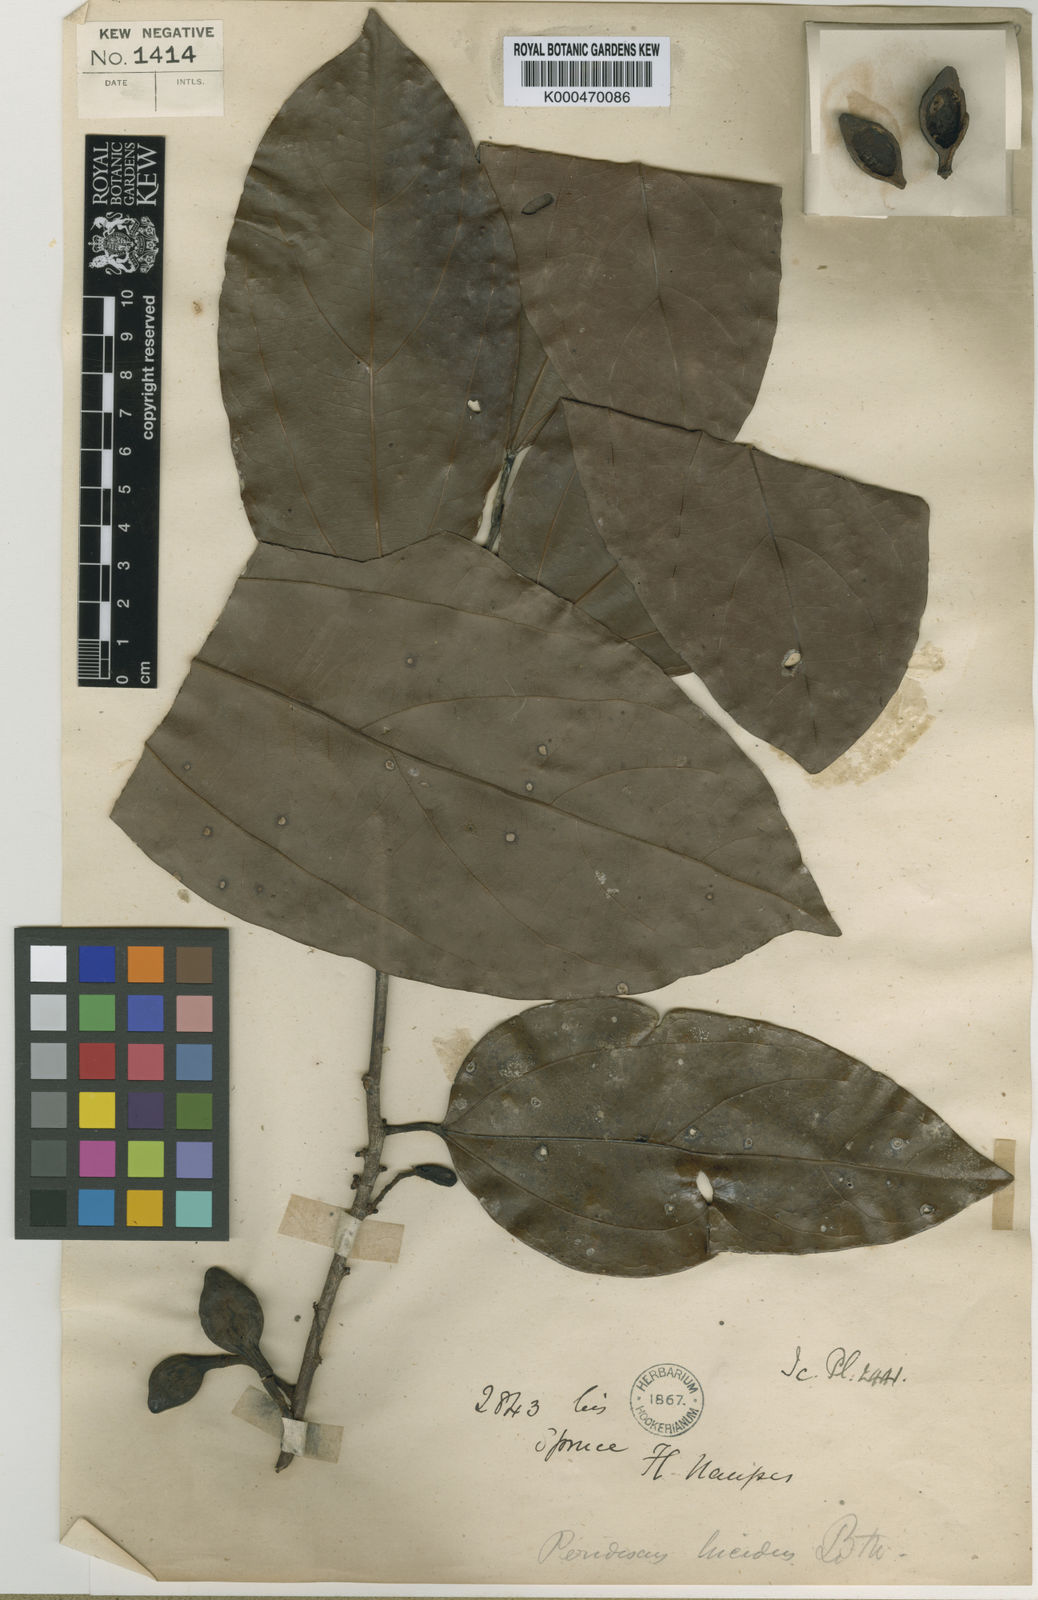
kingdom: Plantae
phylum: Tracheophyta
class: Magnoliopsida
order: Saxifragales
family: Peridiscaceae
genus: Peridiscus
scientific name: Peridiscus lucidus
